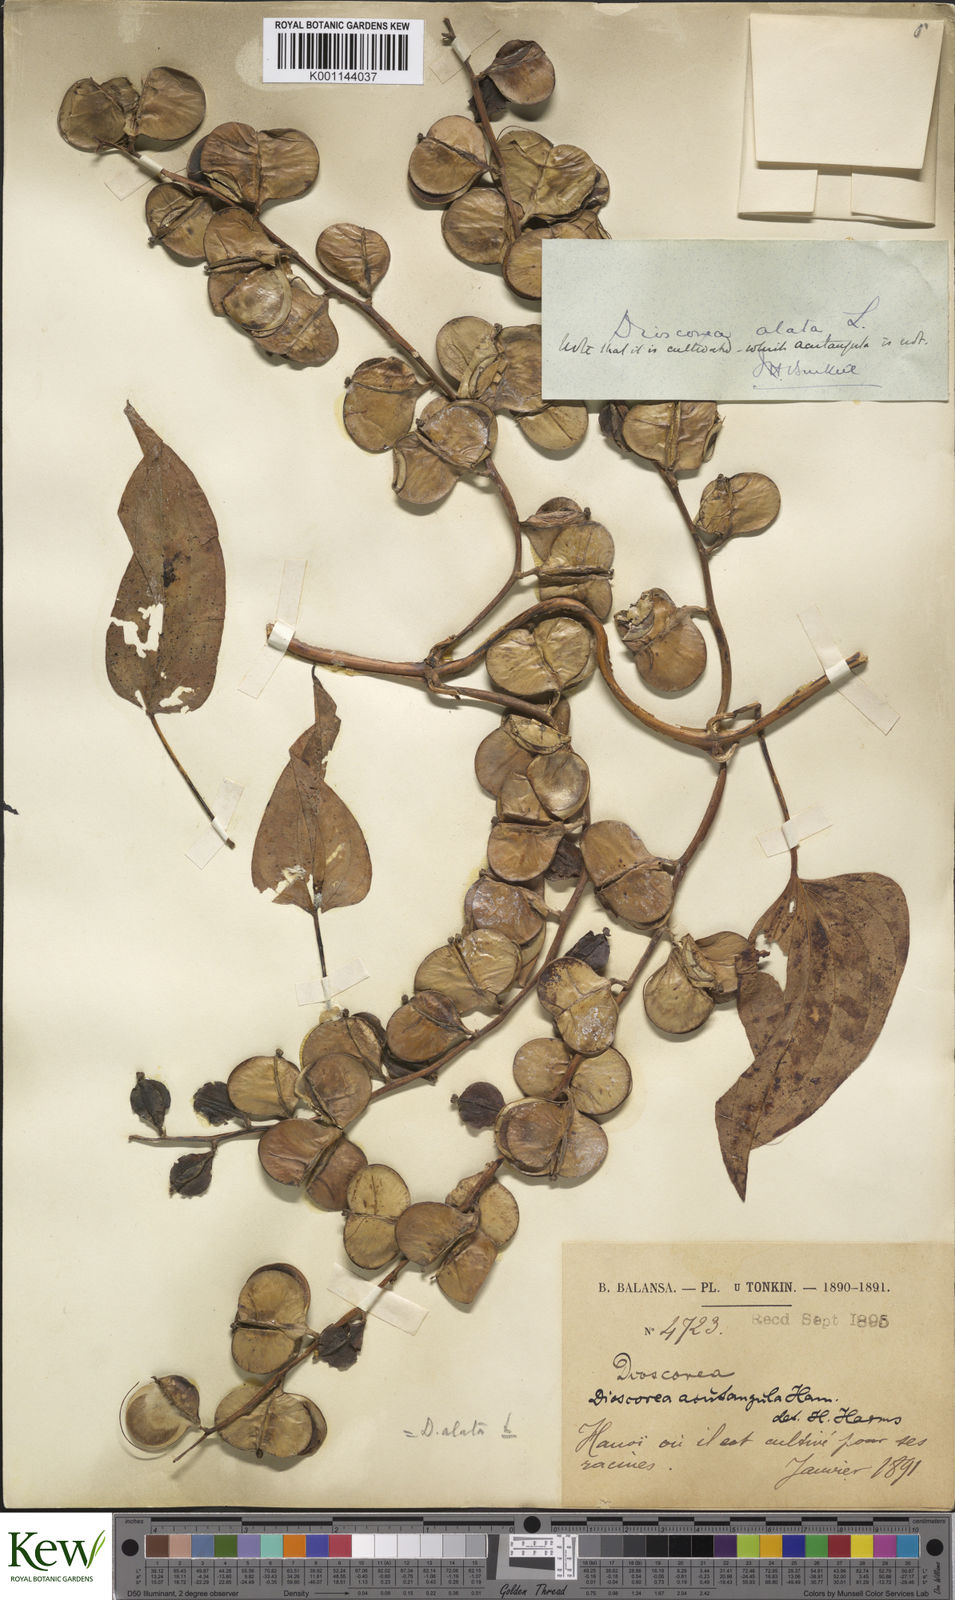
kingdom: Plantae
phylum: Tracheophyta
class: Liliopsida
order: Dioscoreales
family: Dioscoreaceae
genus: Dioscorea
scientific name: Dioscorea alata
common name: Water yam
